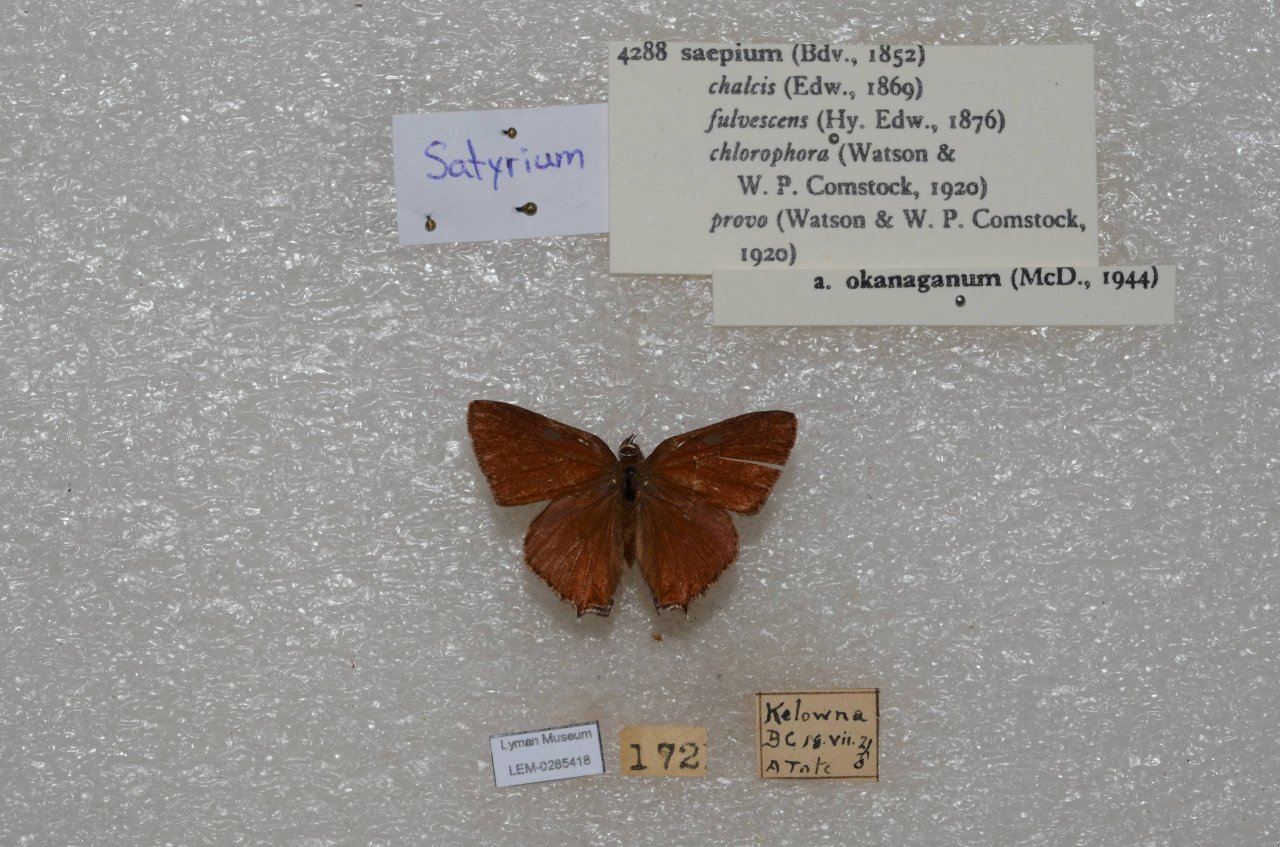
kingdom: Animalia
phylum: Arthropoda
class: Insecta
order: Lepidoptera
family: Lycaenidae
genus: Strymon
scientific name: Strymon saepium
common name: Hedgerow Hairstreak
